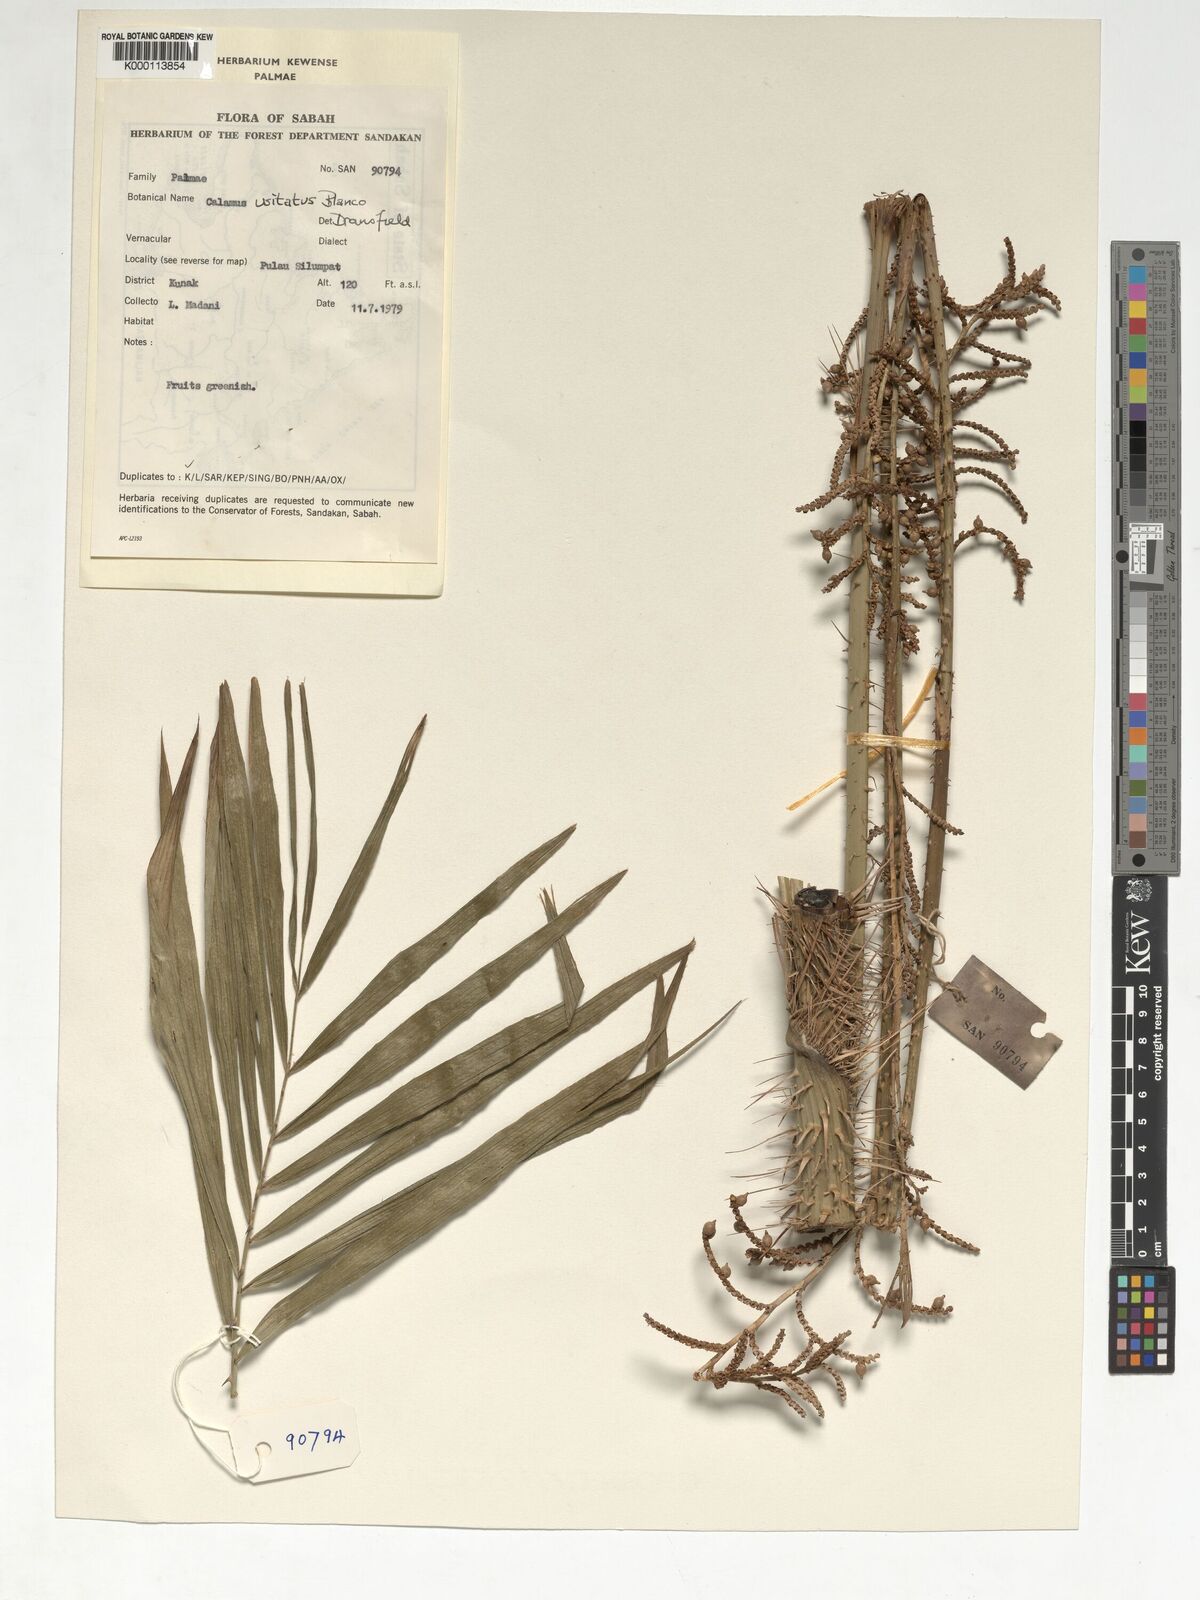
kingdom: Plantae
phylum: Tracheophyta
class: Liliopsida
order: Arecales
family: Arecaceae
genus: Calamus
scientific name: Calamus usitatus
